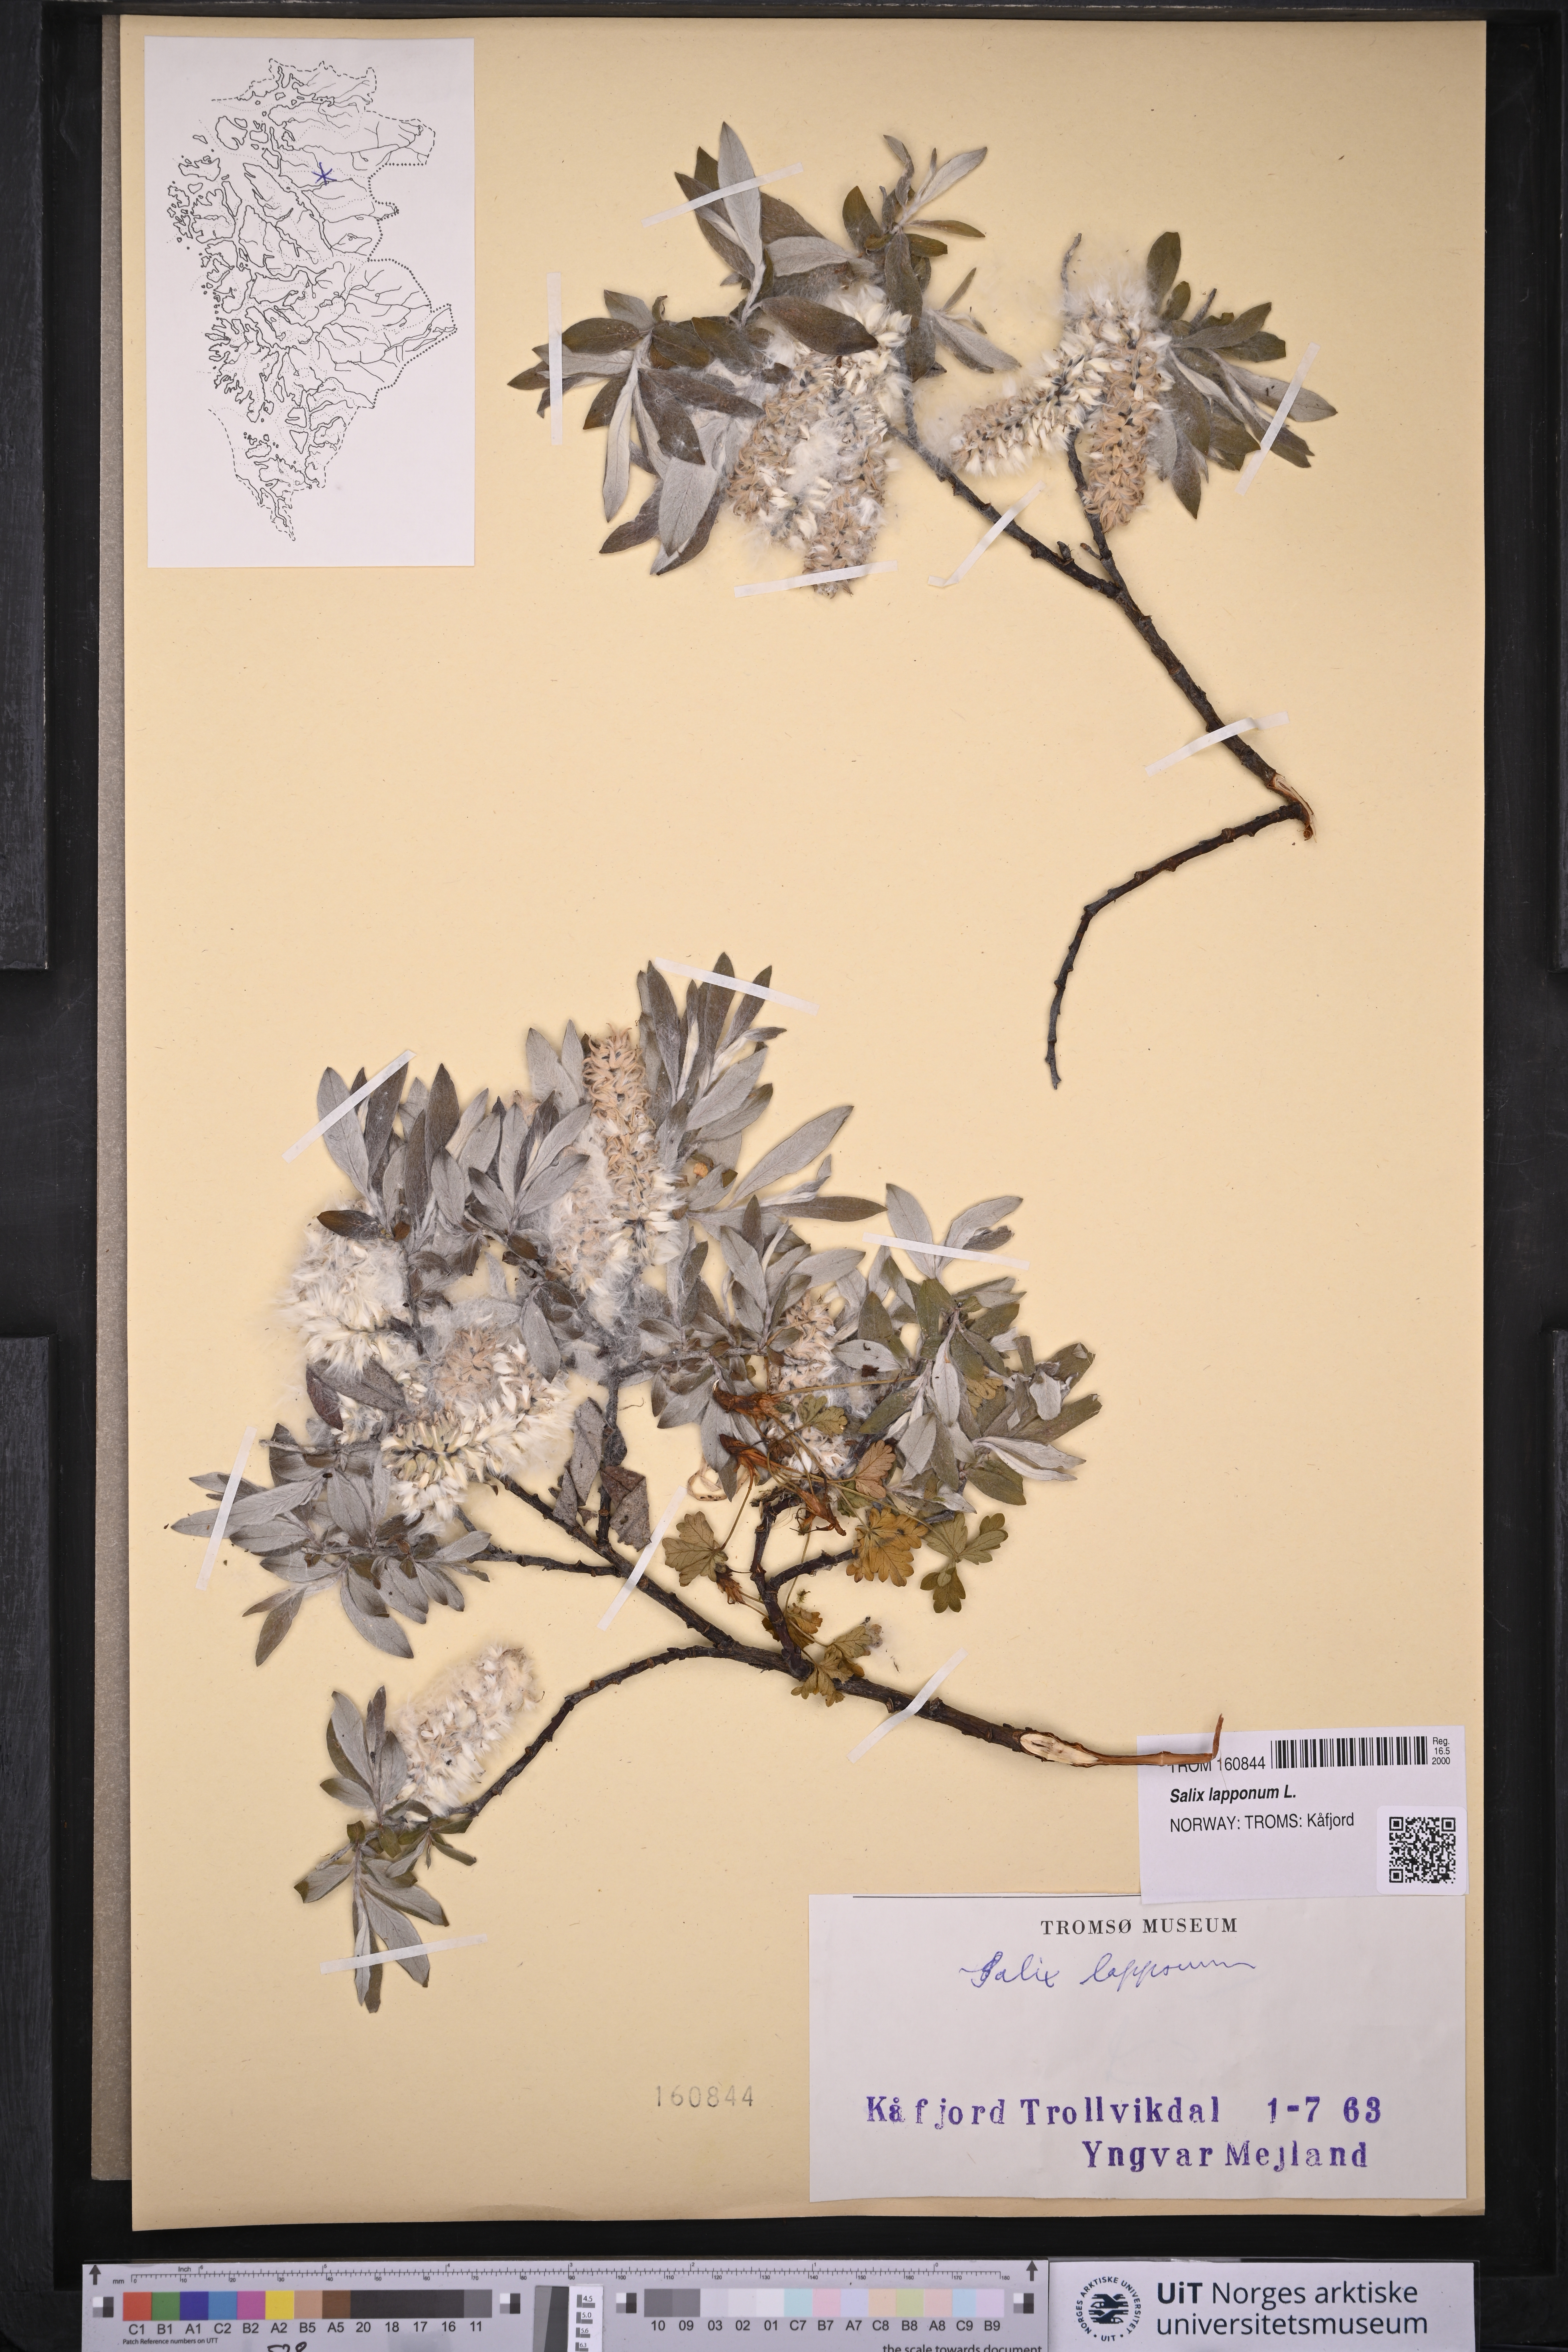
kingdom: Plantae
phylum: Tracheophyta
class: Magnoliopsida
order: Malpighiales
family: Salicaceae
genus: Salix
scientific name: Salix lapponum
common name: Downy willow
